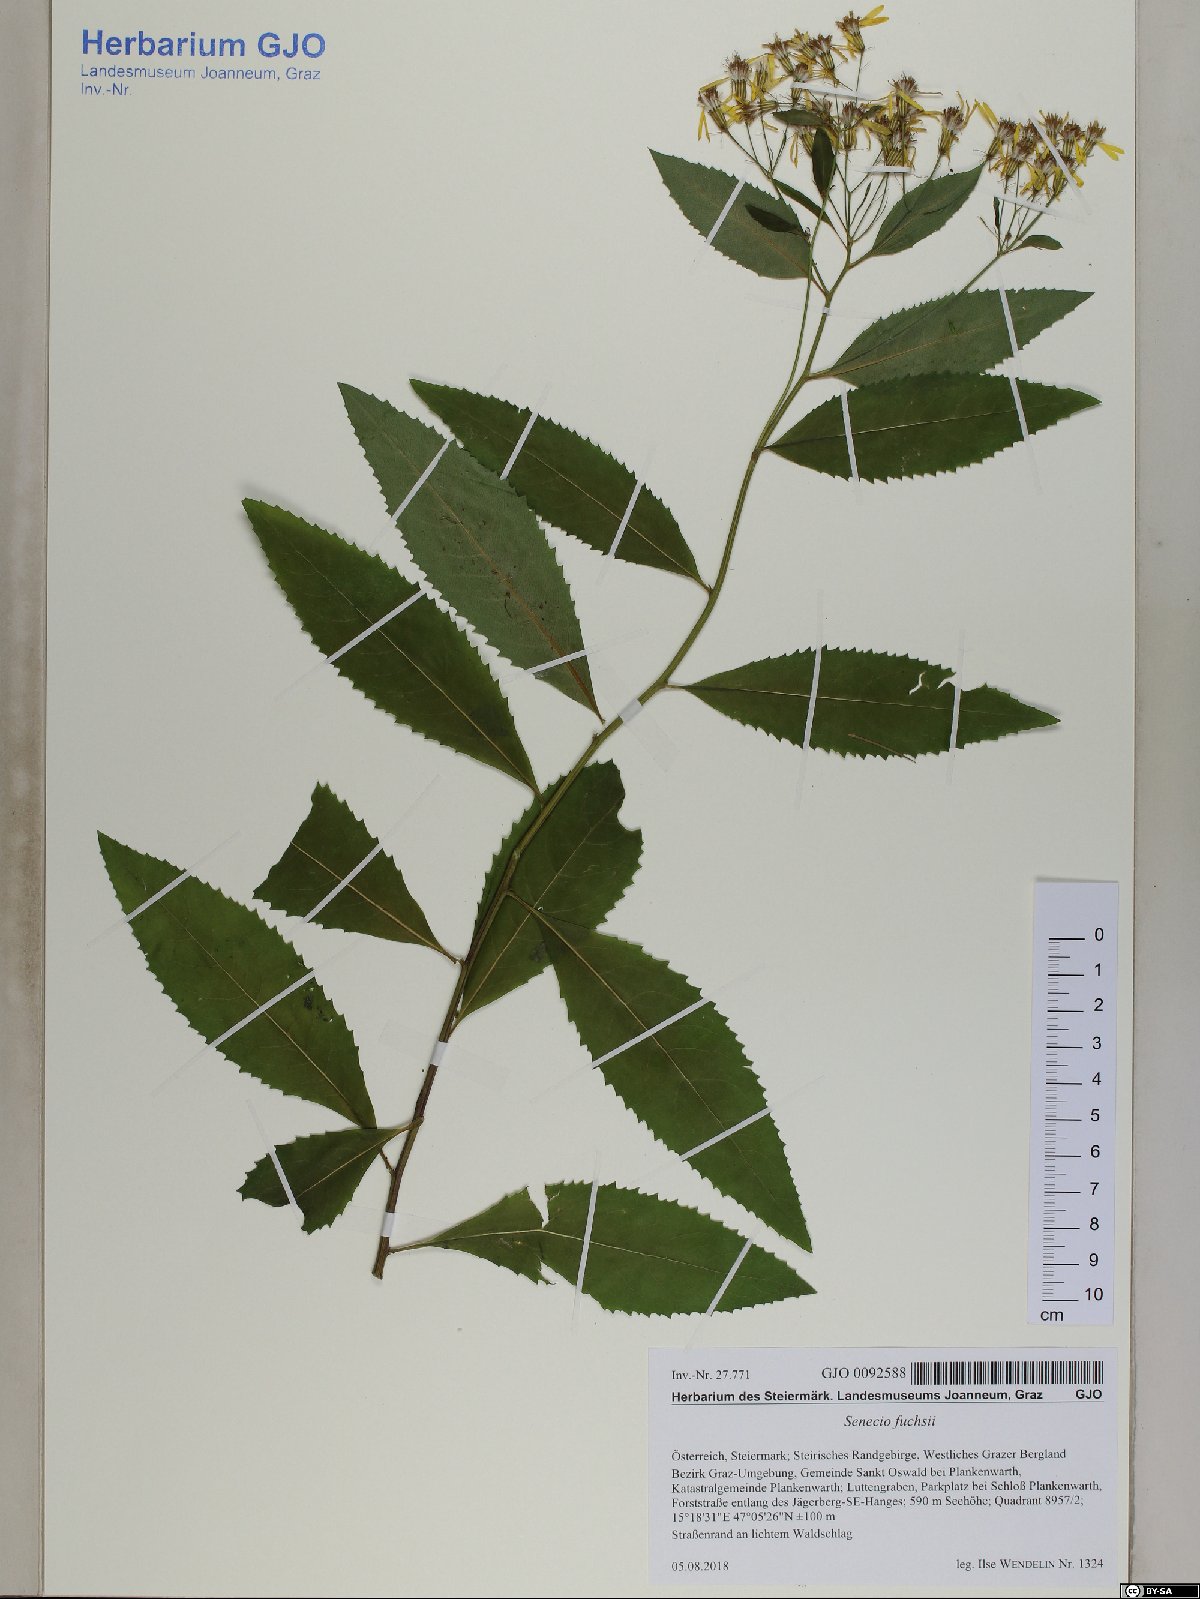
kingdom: Plantae
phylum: Tracheophyta
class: Magnoliopsida
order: Asterales
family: Asteraceae
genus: Senecio
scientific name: Senecio ovatus
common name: Wood ragwort
